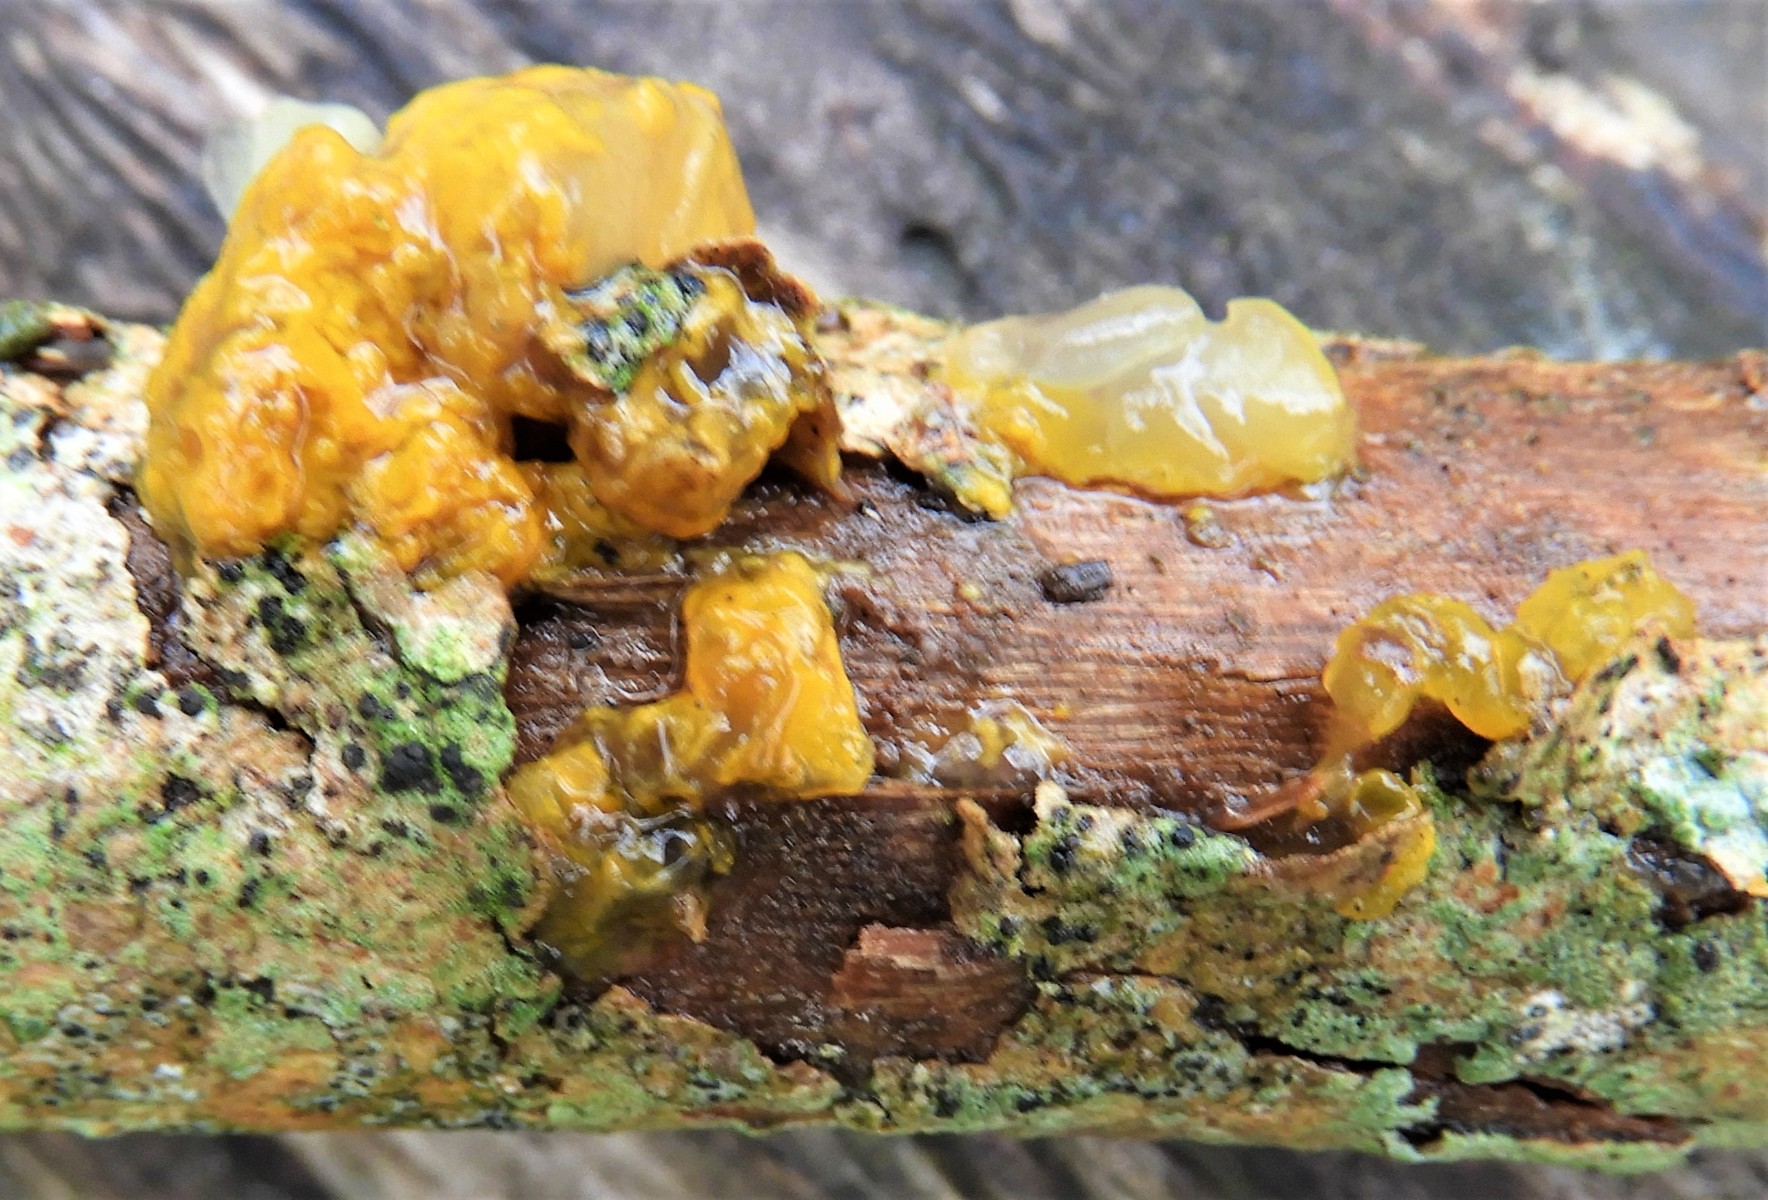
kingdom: Fungi
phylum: Basidiomycota
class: Tremellomycetes
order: Tremellales
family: Tremellaceae
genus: Tremella
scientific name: Tremella mesenterica
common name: gul bævresvamp
